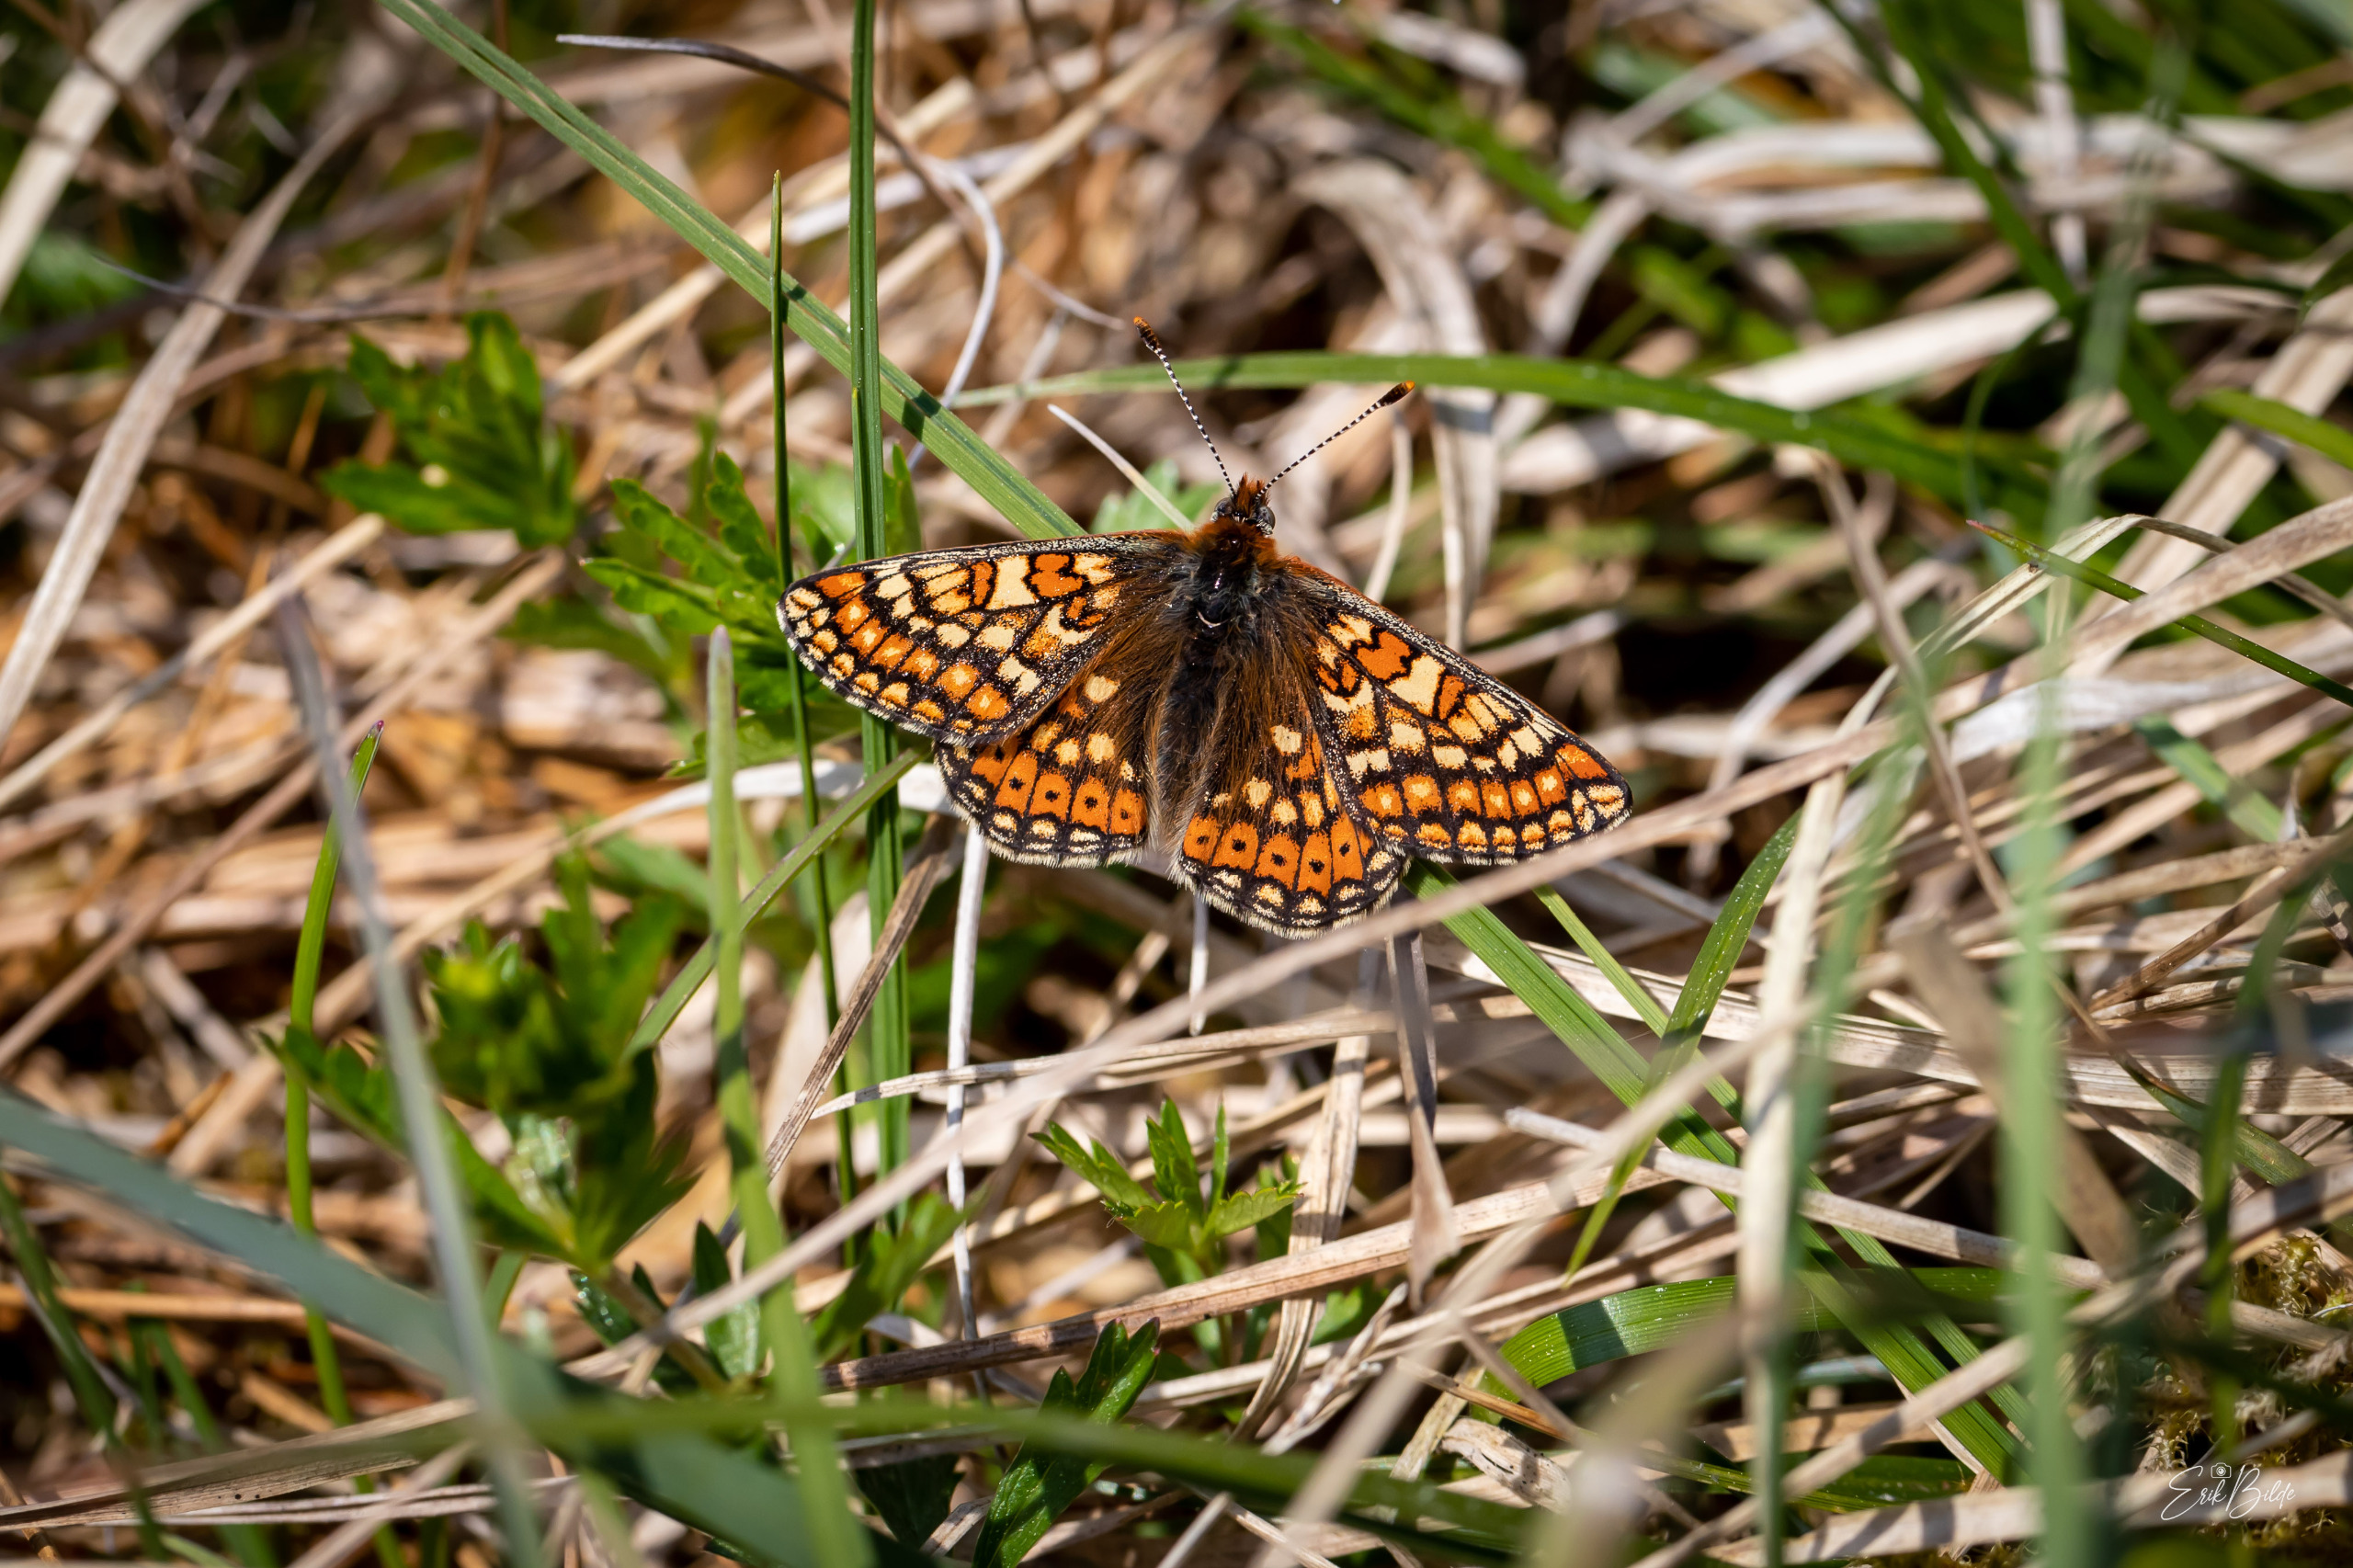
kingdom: Animalia
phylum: Arthropoda
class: Insecta
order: Lepidoptera
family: Nymphalidae
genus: Euphydryas
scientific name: Euphydryas aurinia
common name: Hedepletvinge
